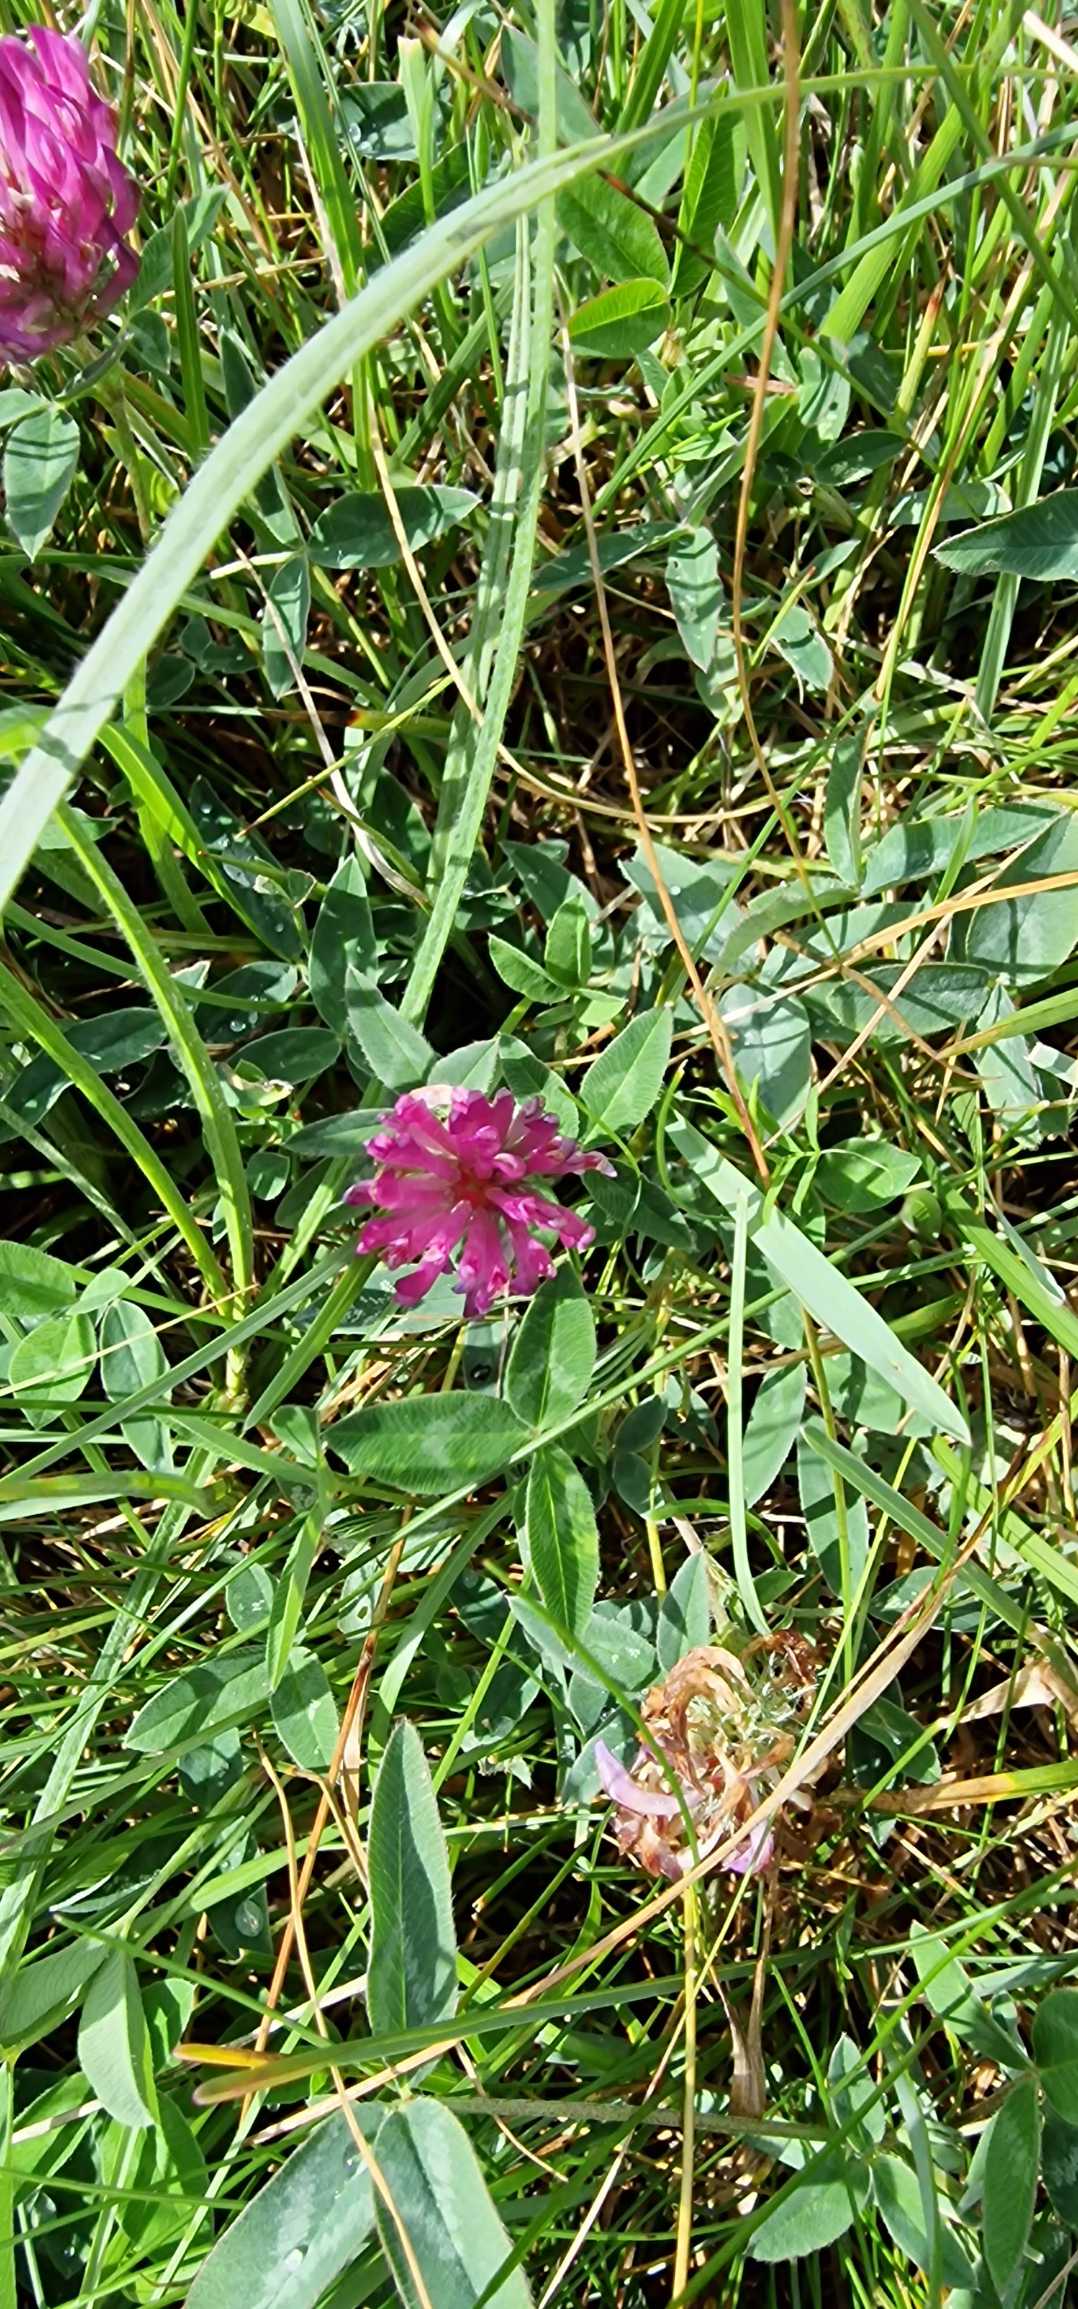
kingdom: Plantae
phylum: Tracheophyta
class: Magnoliopsida
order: Fabales
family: Fabaceae
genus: Trifolium
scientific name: Trifolium medium
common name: Bugtet kløver
